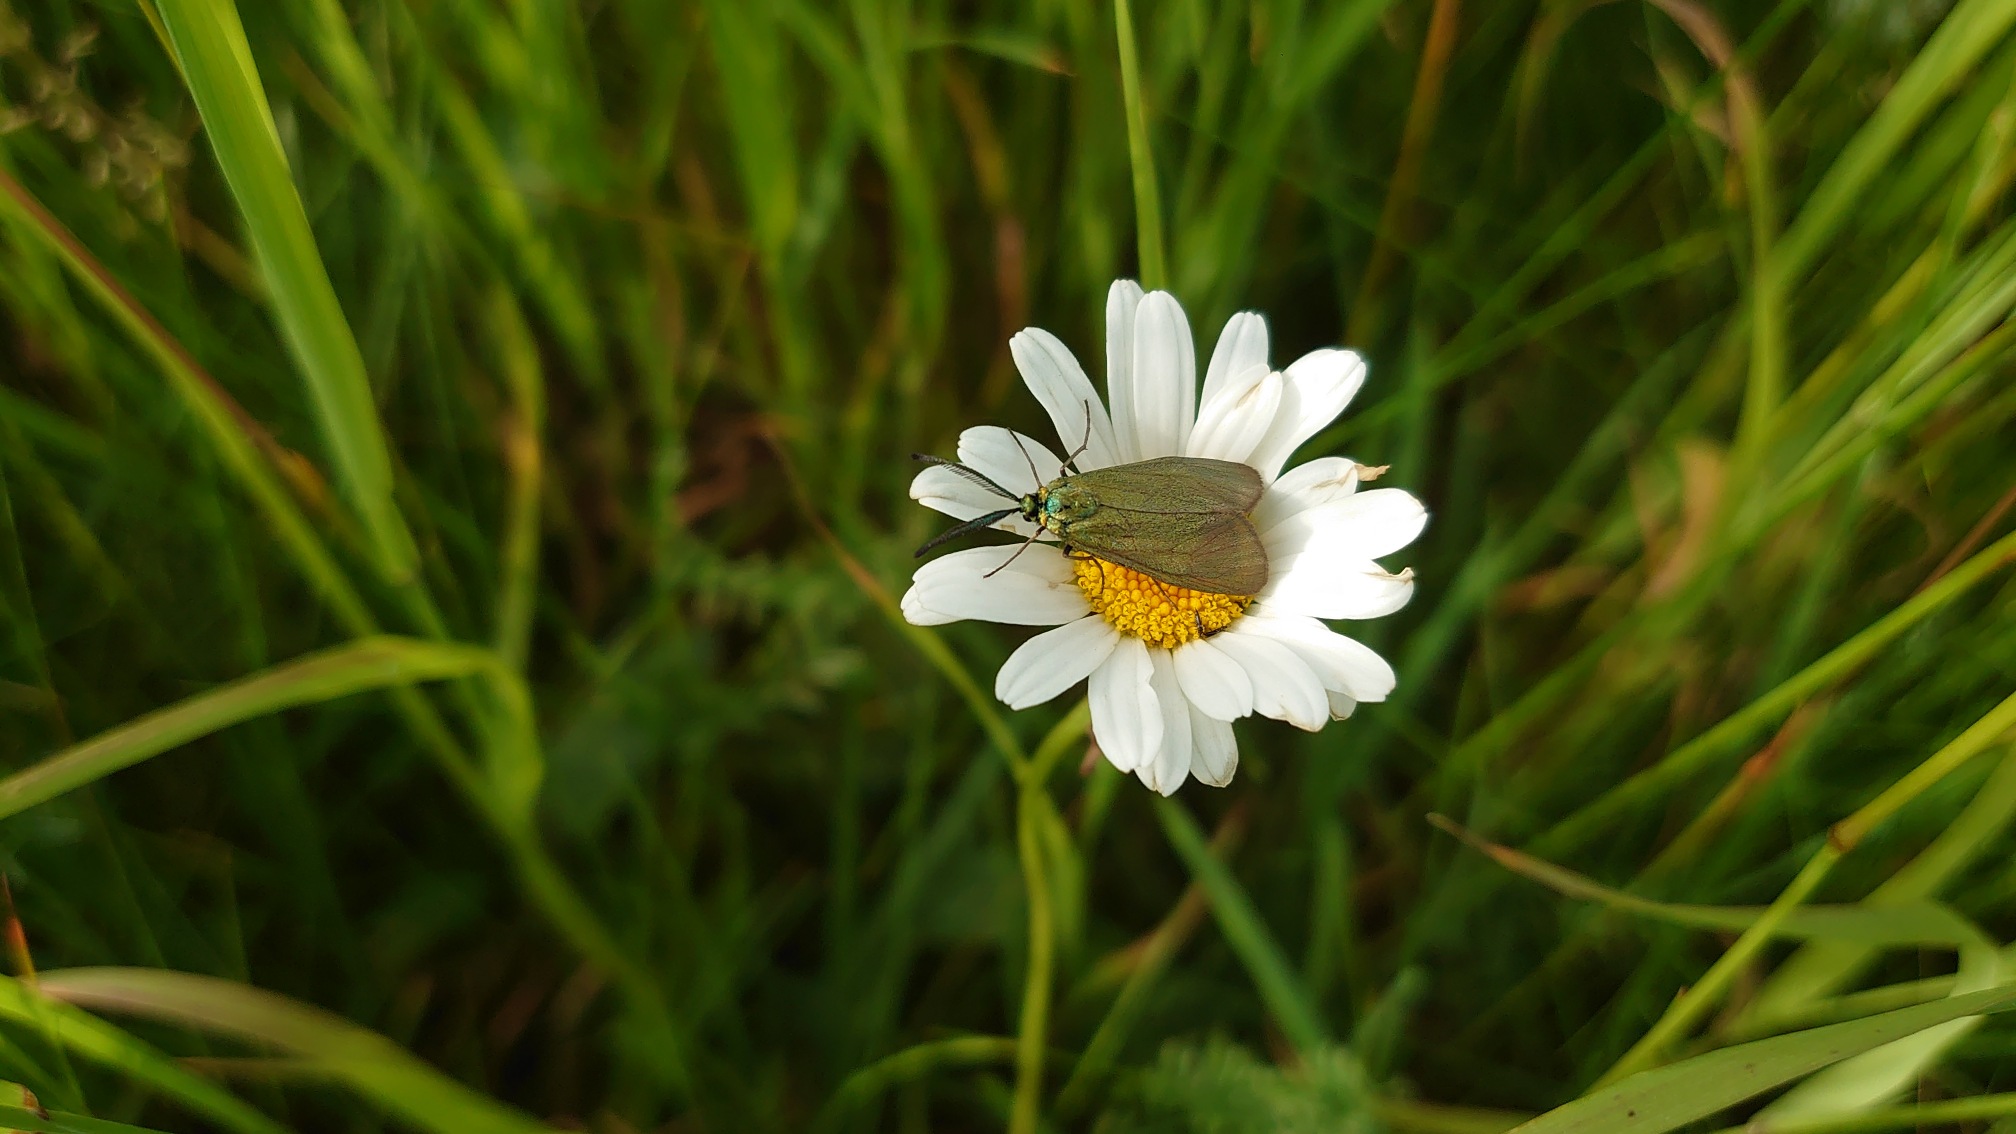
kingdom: Animalia
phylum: Arthropoda
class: Insecta
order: Lepidoptera
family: Zygaenidae
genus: Adscita
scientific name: Adscita statices
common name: Metalvinge
